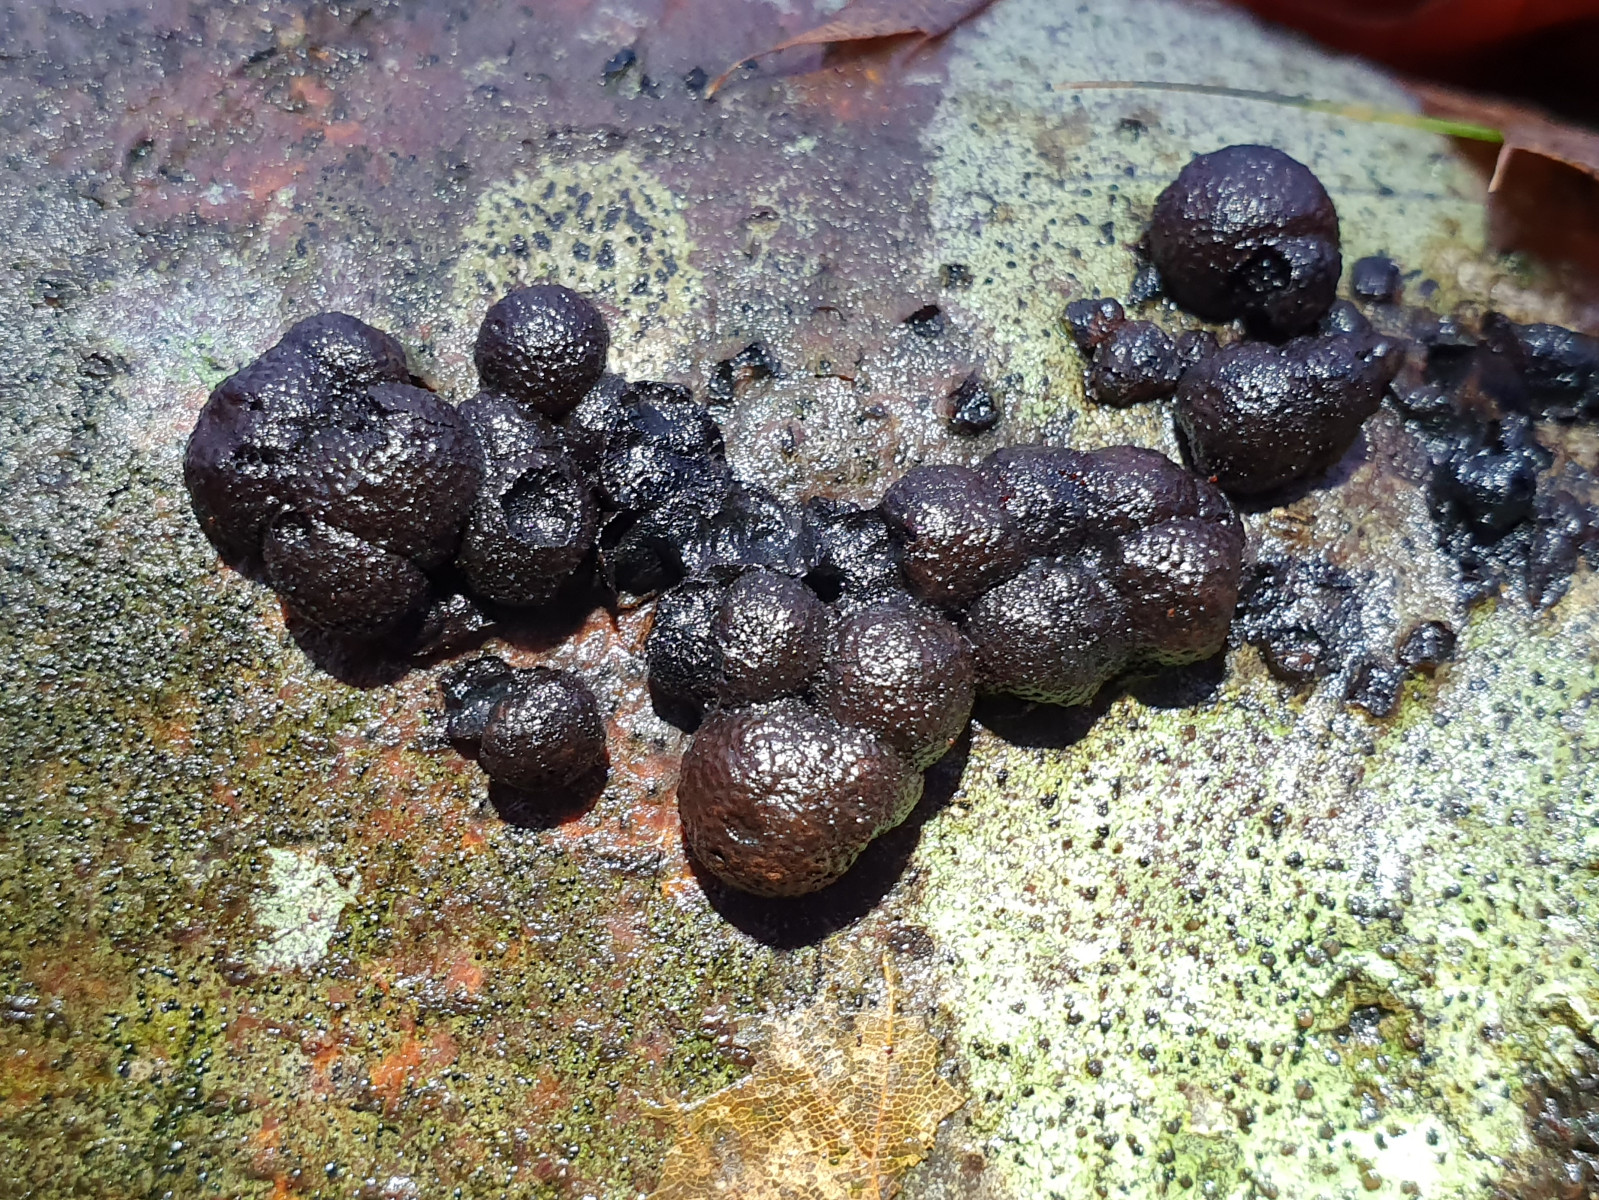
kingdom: Fungi
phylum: Ascomycota
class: Sordariomycetes
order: Xylariales
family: Hypoxylaceae
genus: Hypoxylon
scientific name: Hypoxylon fragiforme
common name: kuljordbær
